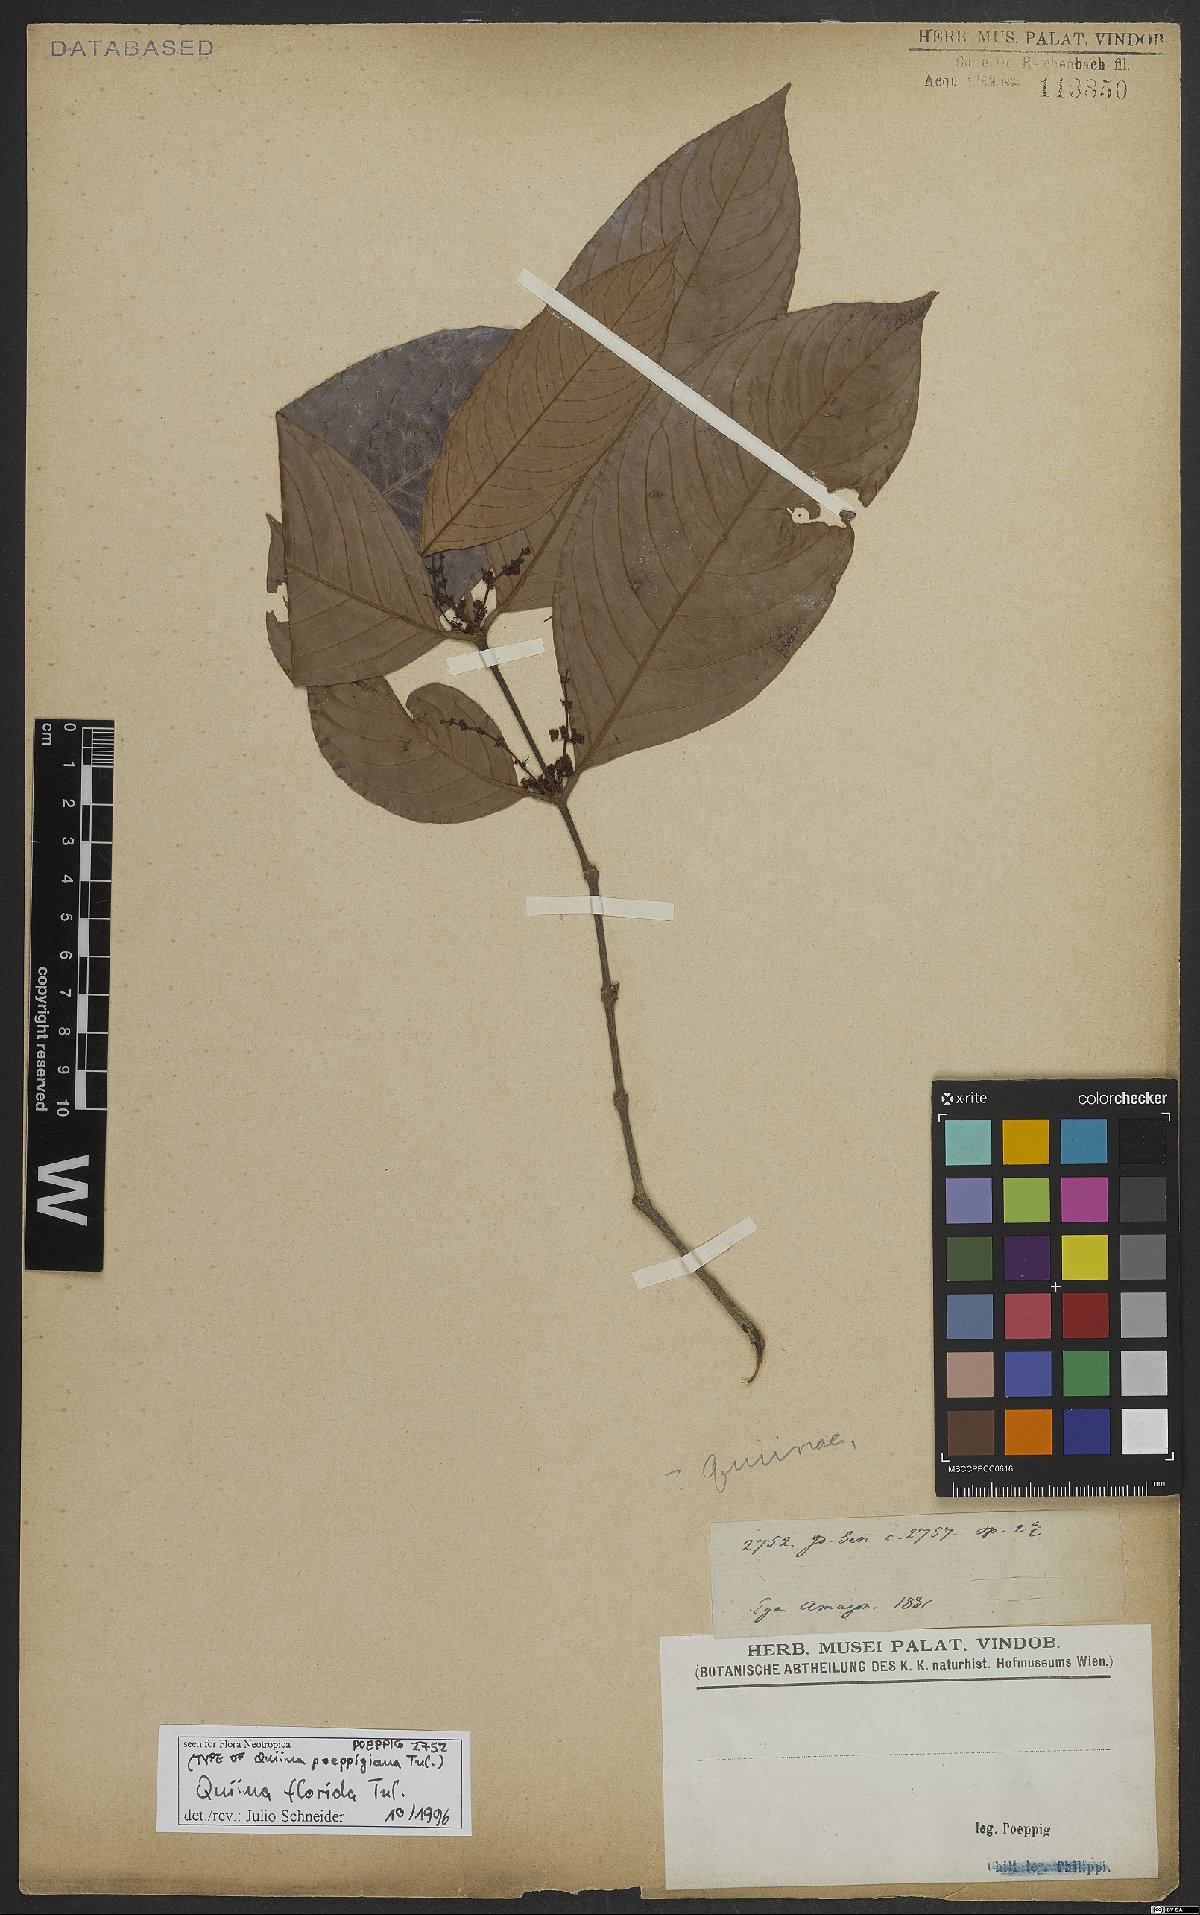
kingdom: Plantae
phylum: Tracheophyta
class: Magnoliopsida
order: Malpighiales
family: Quiinaceae
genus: Quiina
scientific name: Quiina florida
